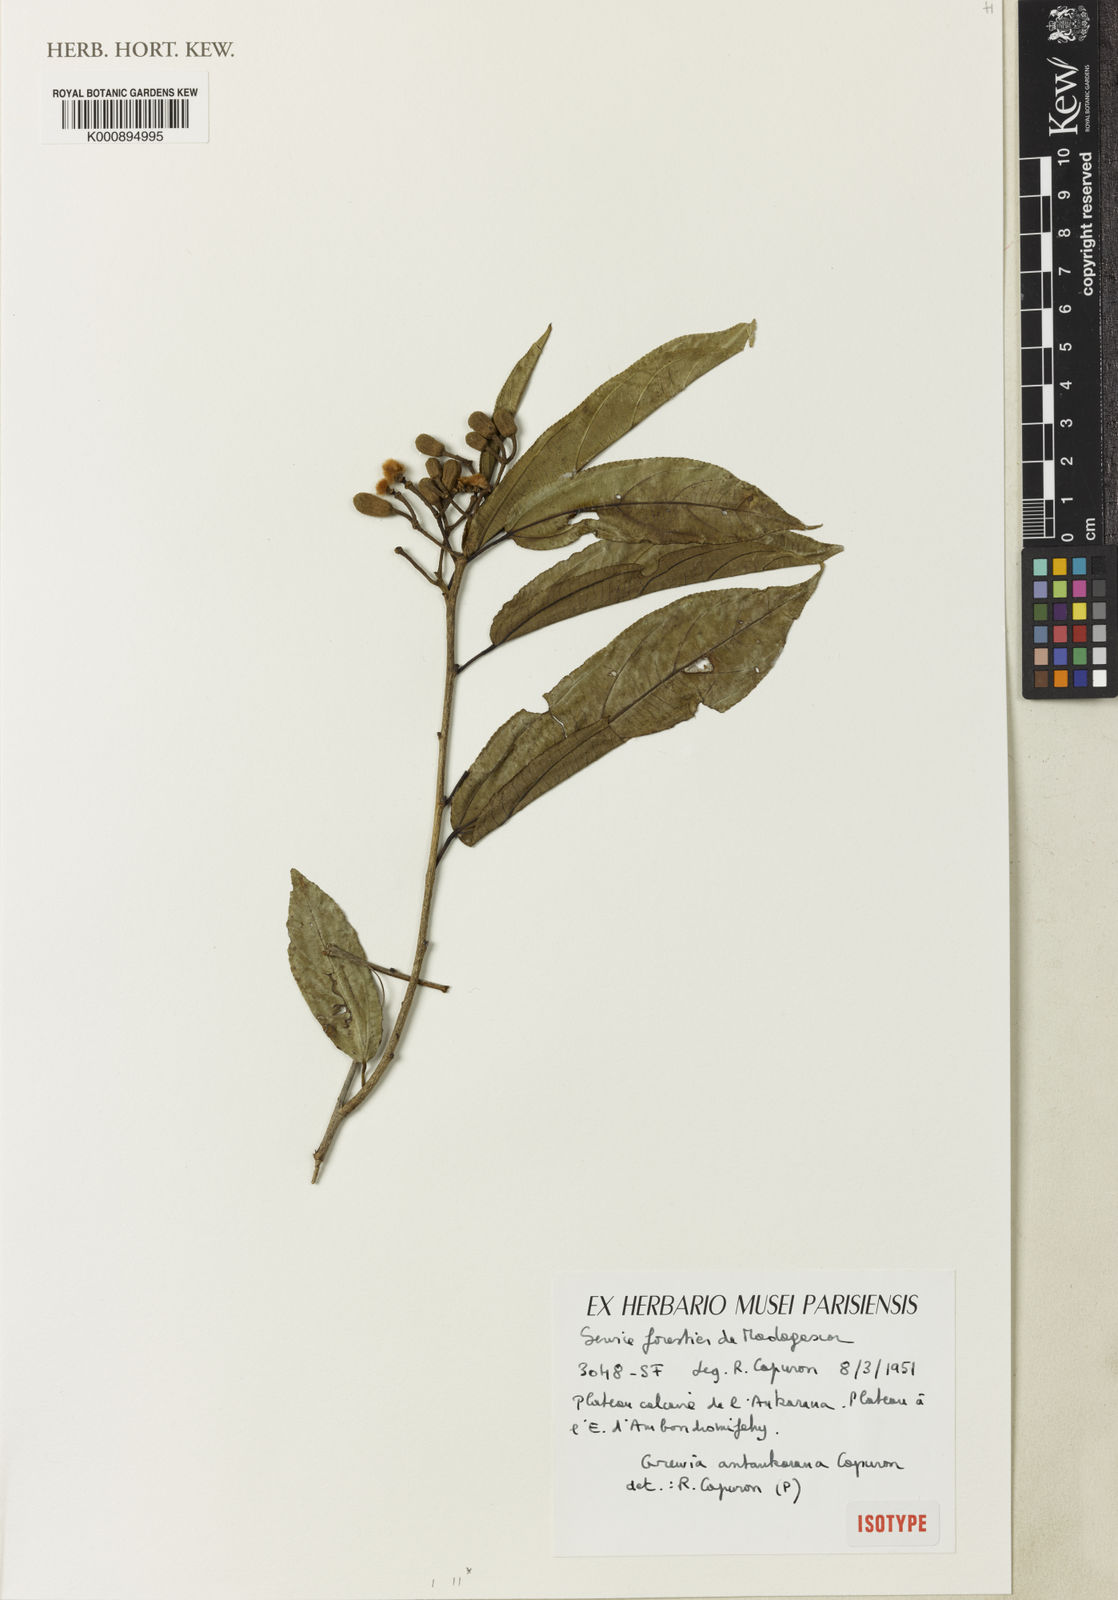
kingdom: Plantae
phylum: Tracheophyta
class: Magnoliopsida
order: Malvales
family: Malvaceae
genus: Grewia
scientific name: Grewia
